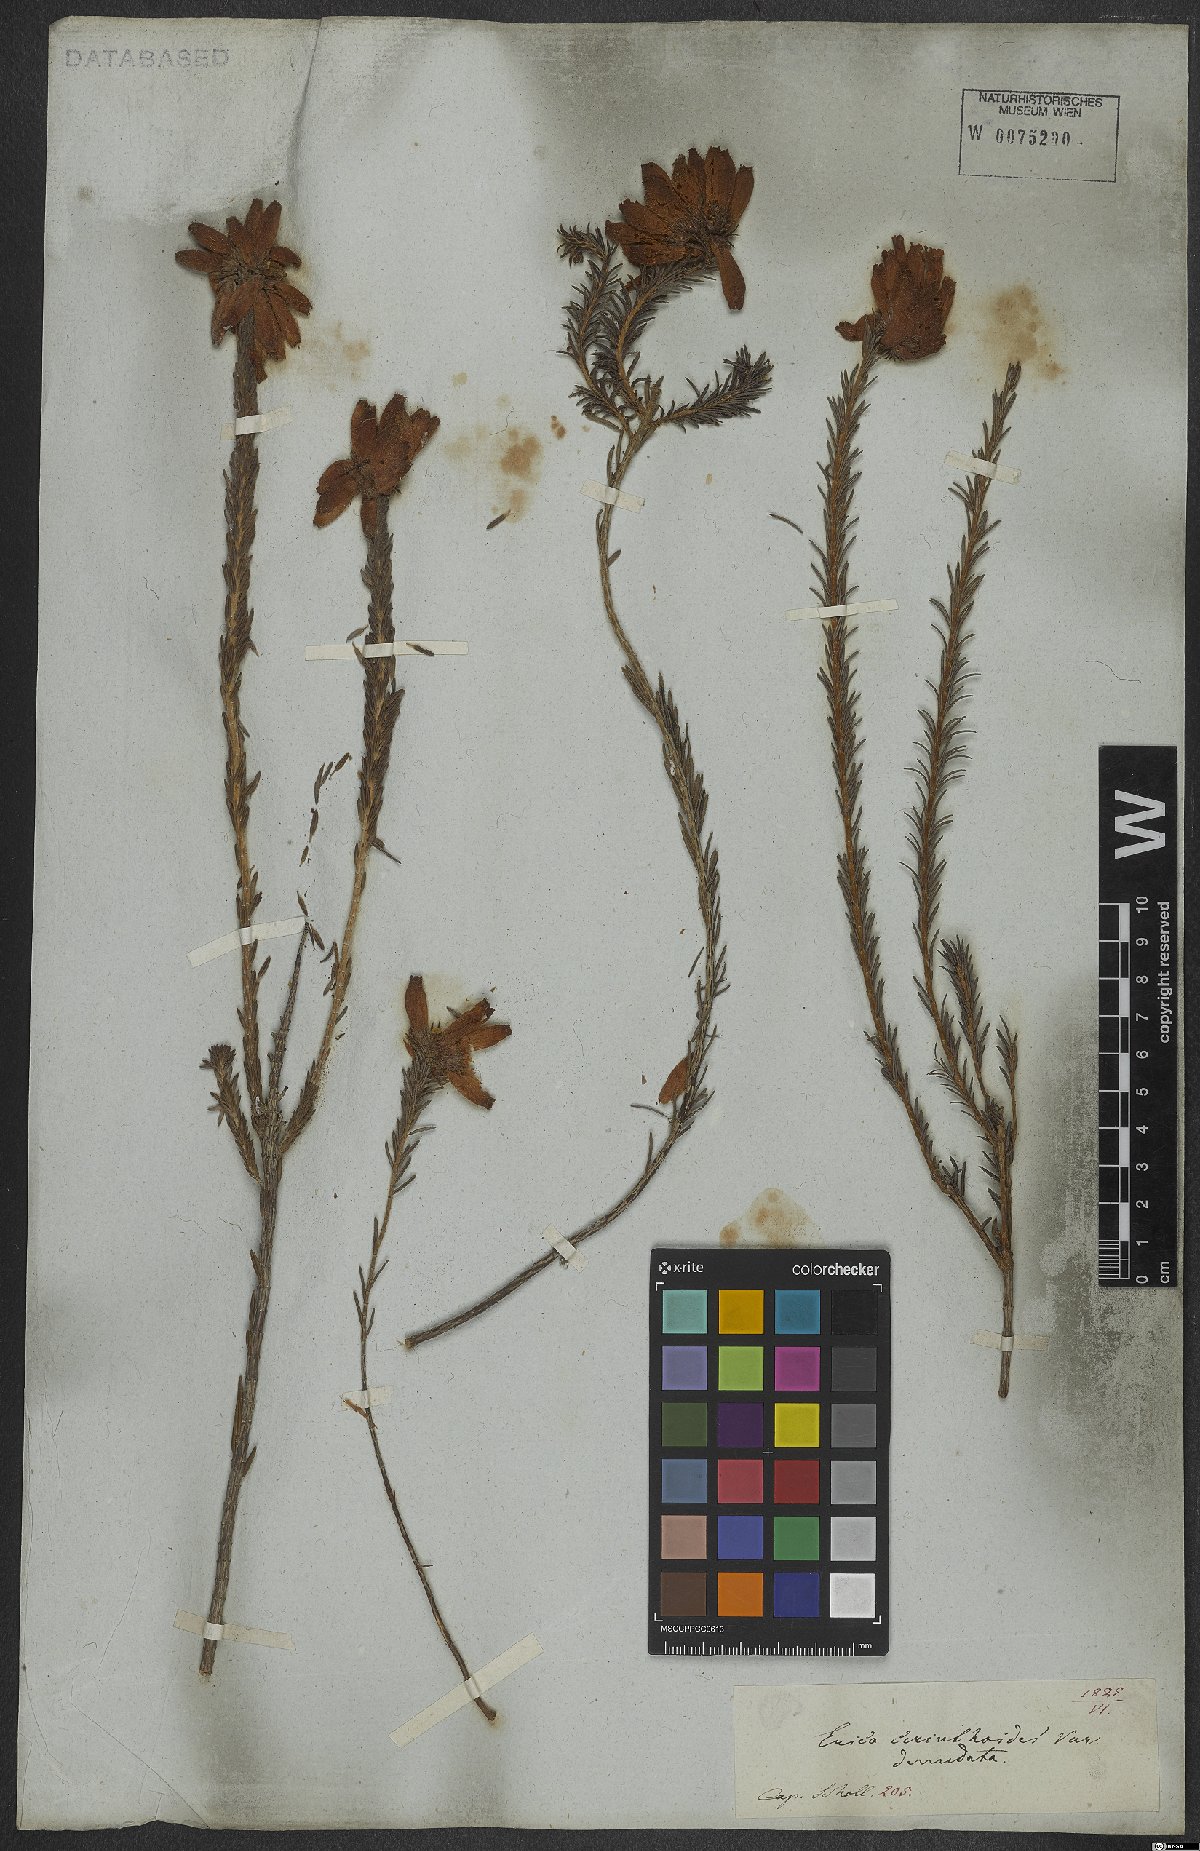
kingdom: Plantae
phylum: Tracheophyta
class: Magnoliopsida
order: Ericales
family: Ericaceae
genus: Erica
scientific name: Erica cerinthoides
